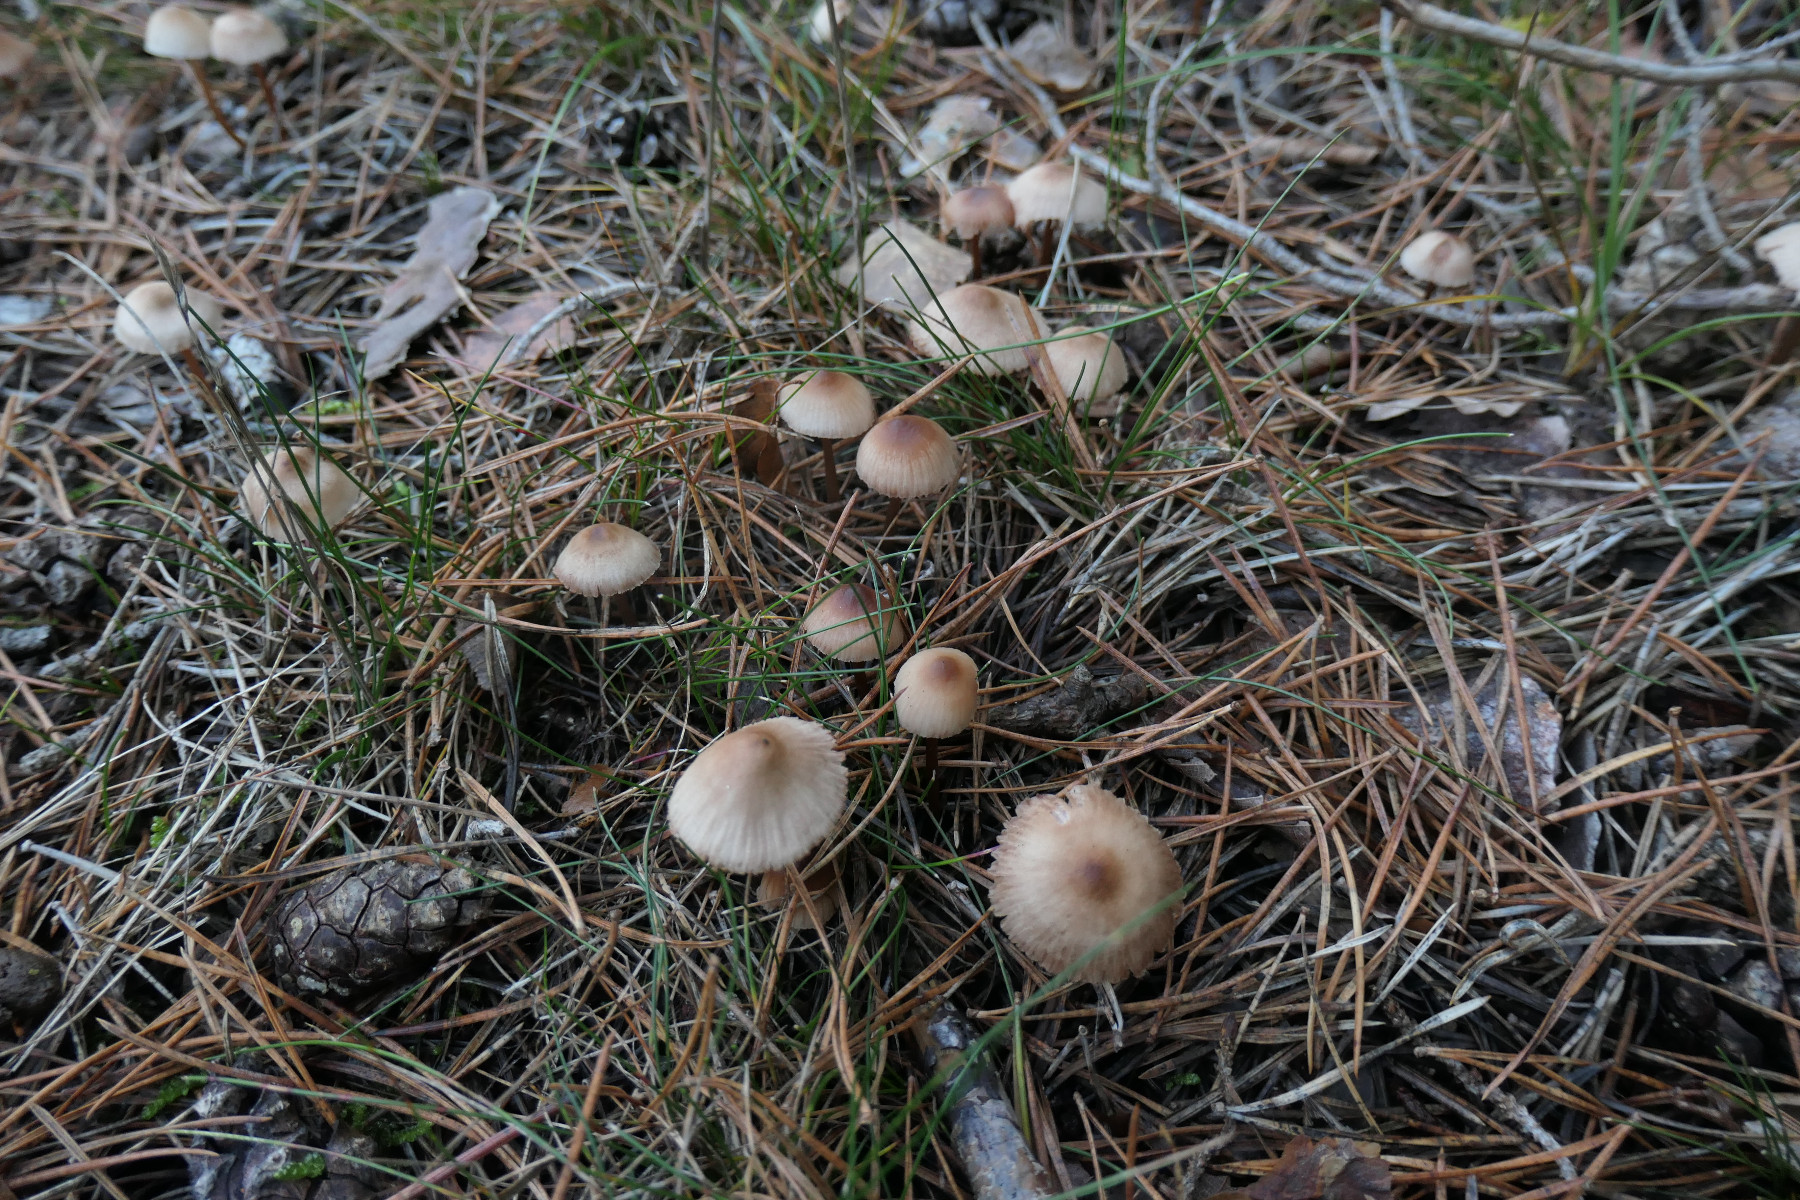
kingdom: Fungi
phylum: Basidiomycota
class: Agaricomycetes
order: Agaricales
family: Mycenaceae
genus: Mycena
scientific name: Mycena zephirus
